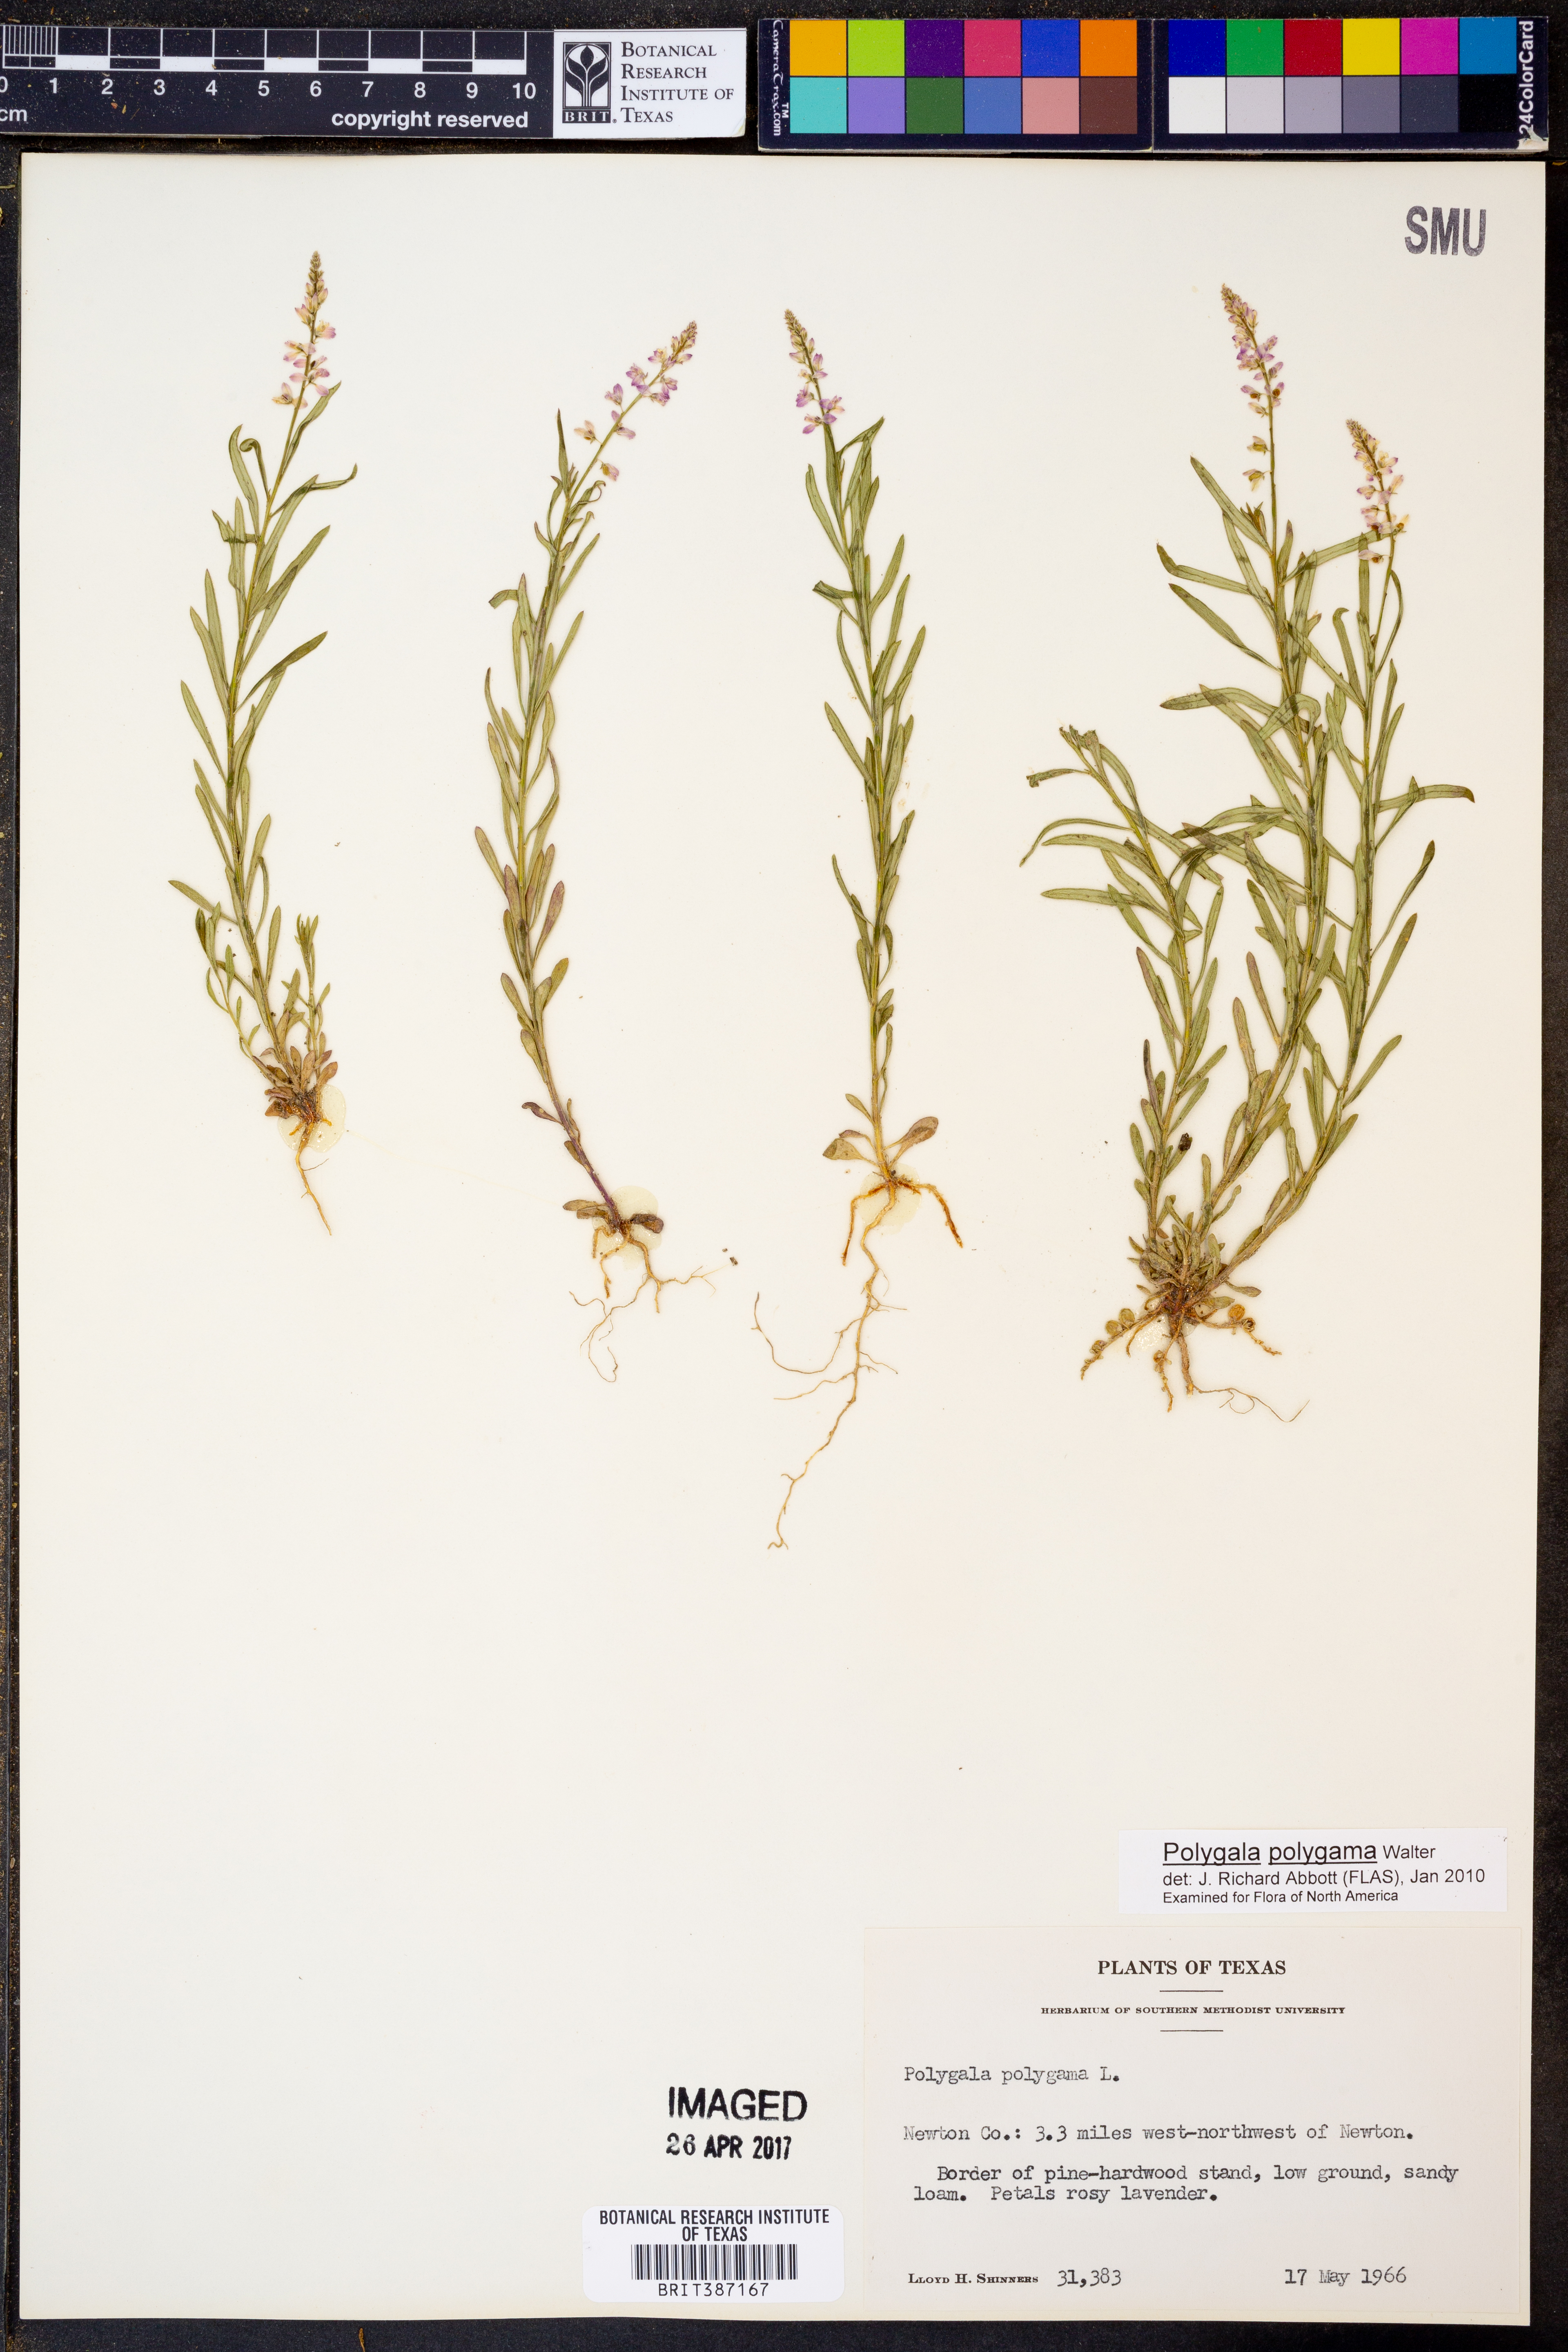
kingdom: Plantae
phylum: Tracheophyta
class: Magnoliopsida
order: Fabales
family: Polygalaceae
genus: Polygala
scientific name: Polygala polygama
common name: Bitter milkwort
